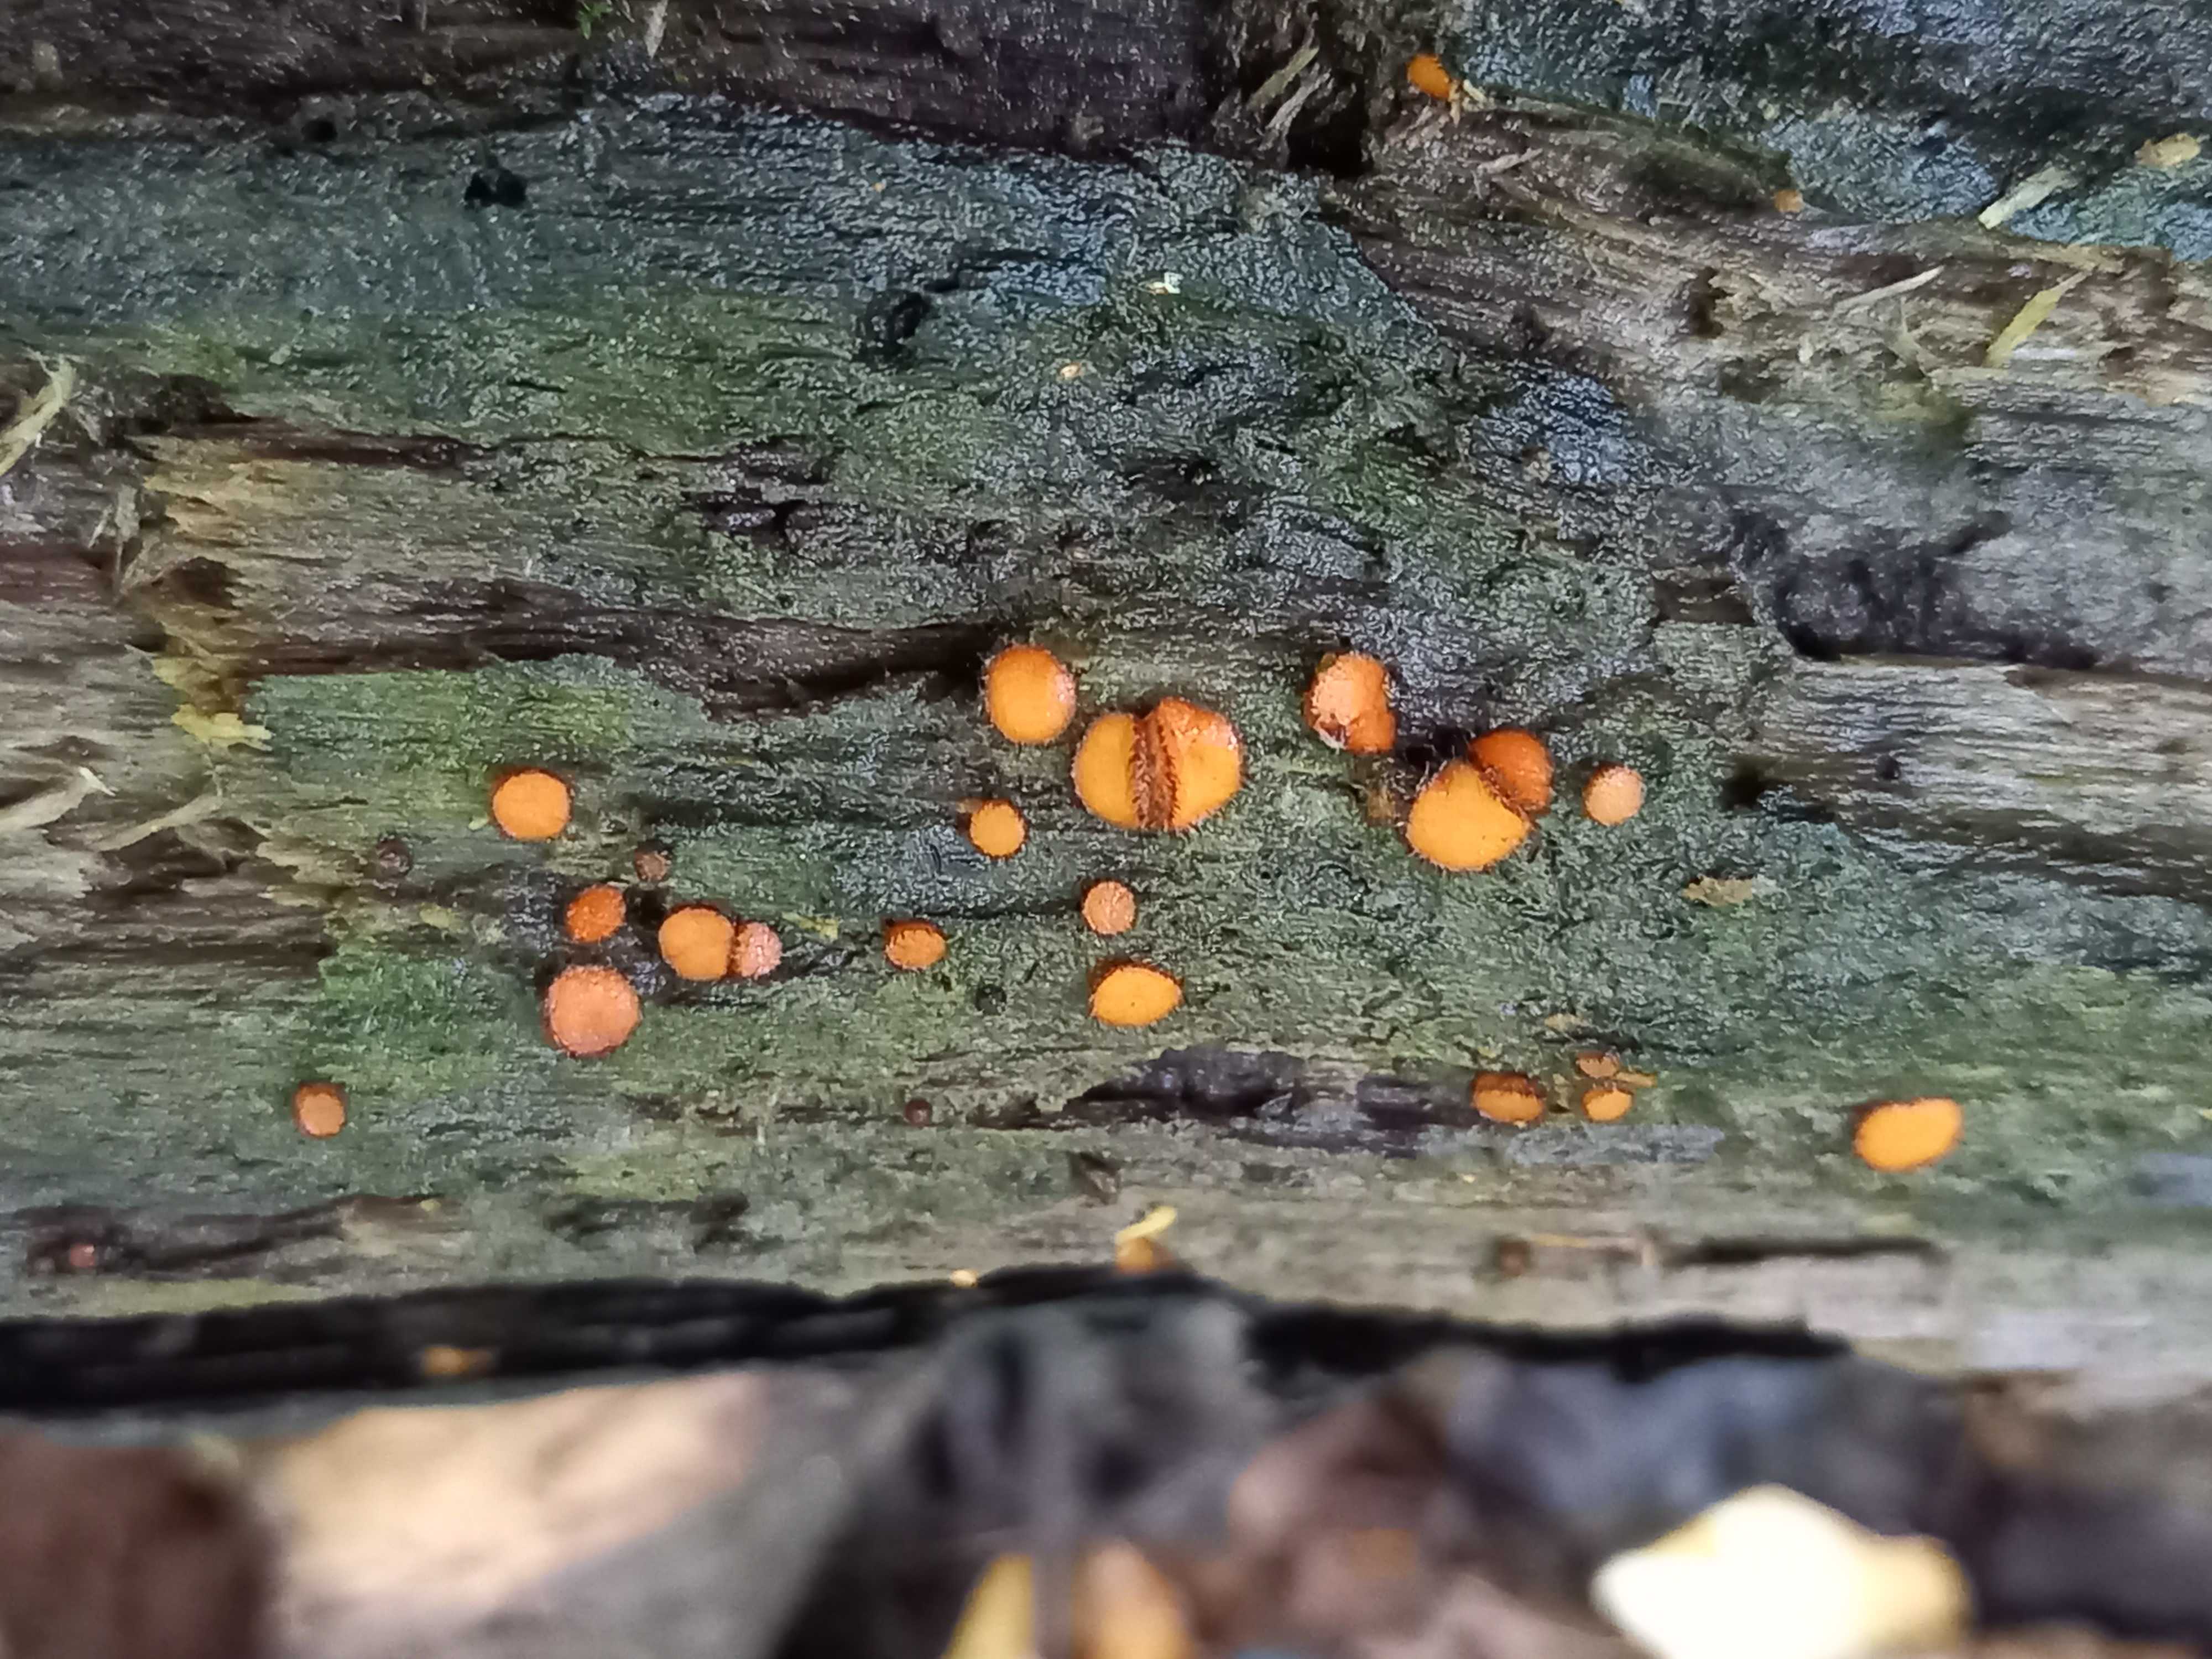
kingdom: Fungi
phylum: Ascomycota
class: Pezizomycetes
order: Pezizales
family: Pyronemataceae
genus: Scutellinia
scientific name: Scutellinia
